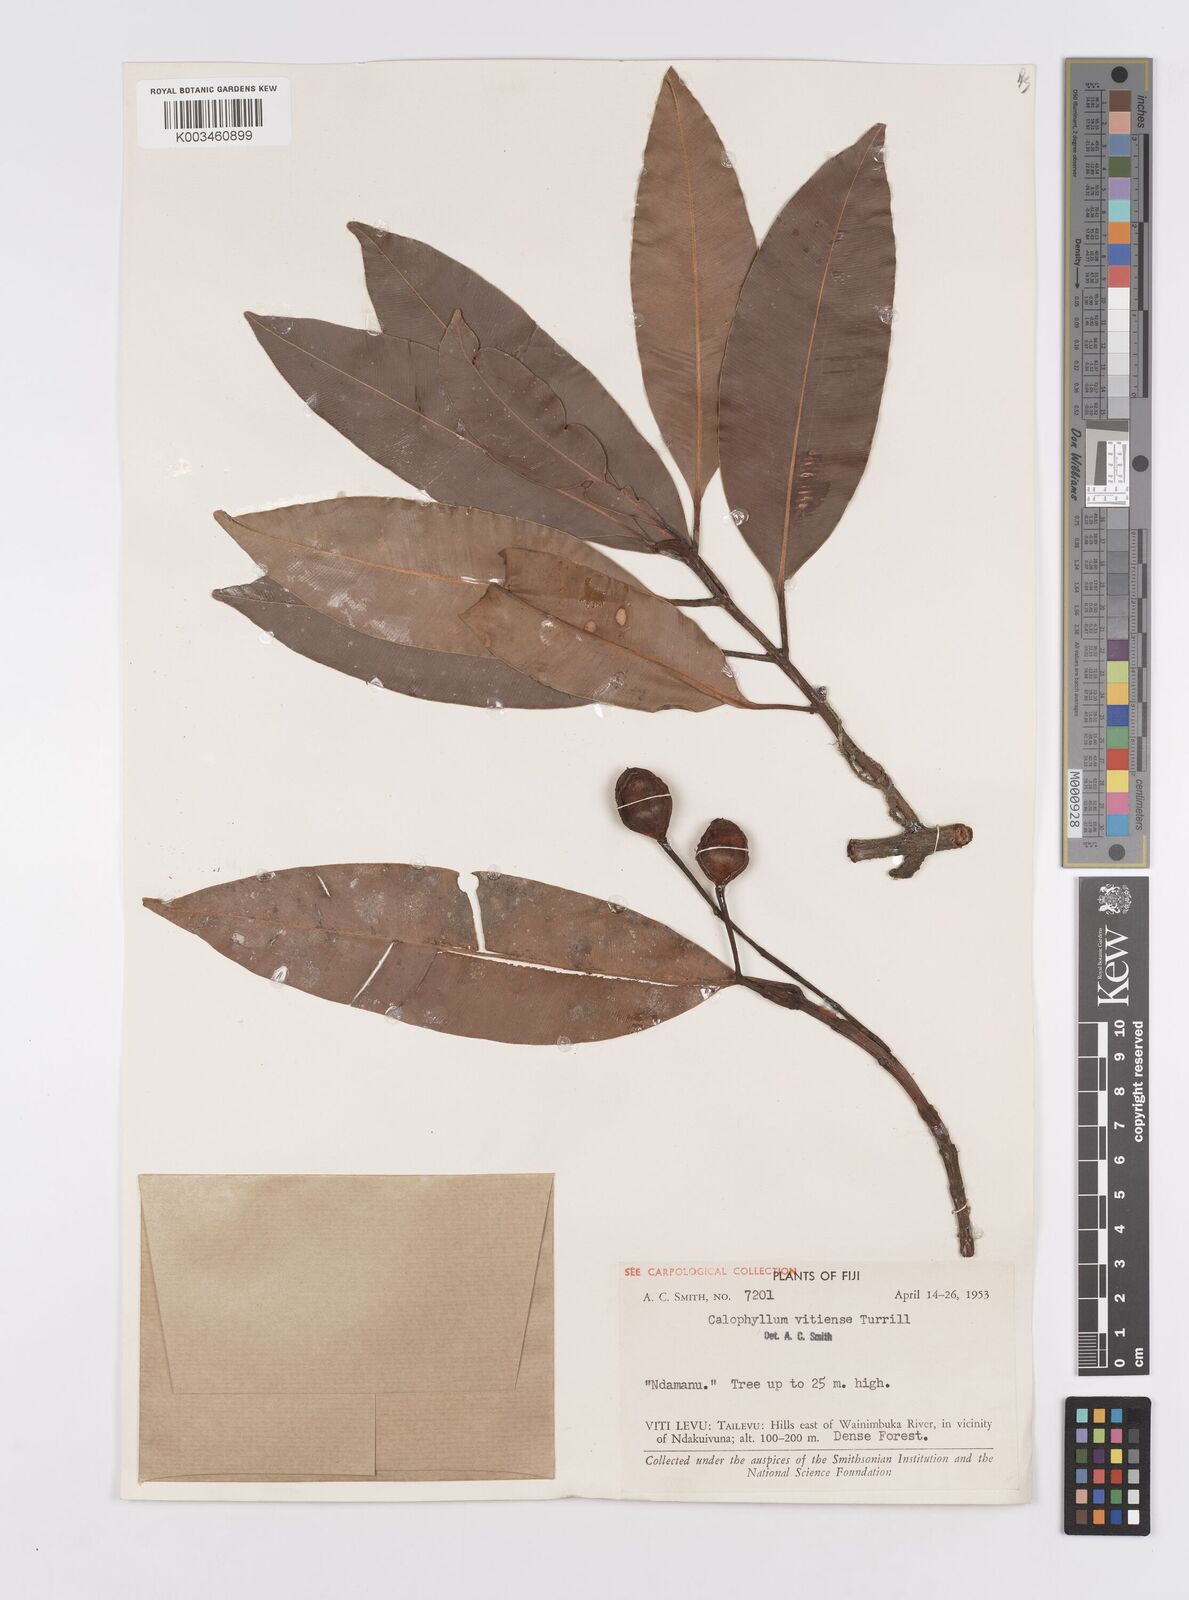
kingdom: Plantae
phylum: Tracheophyta
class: Magnoliopsida
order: Malpighiales
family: Calophyllaceae
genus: Calophyllum
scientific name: Calophyllum vitiense
